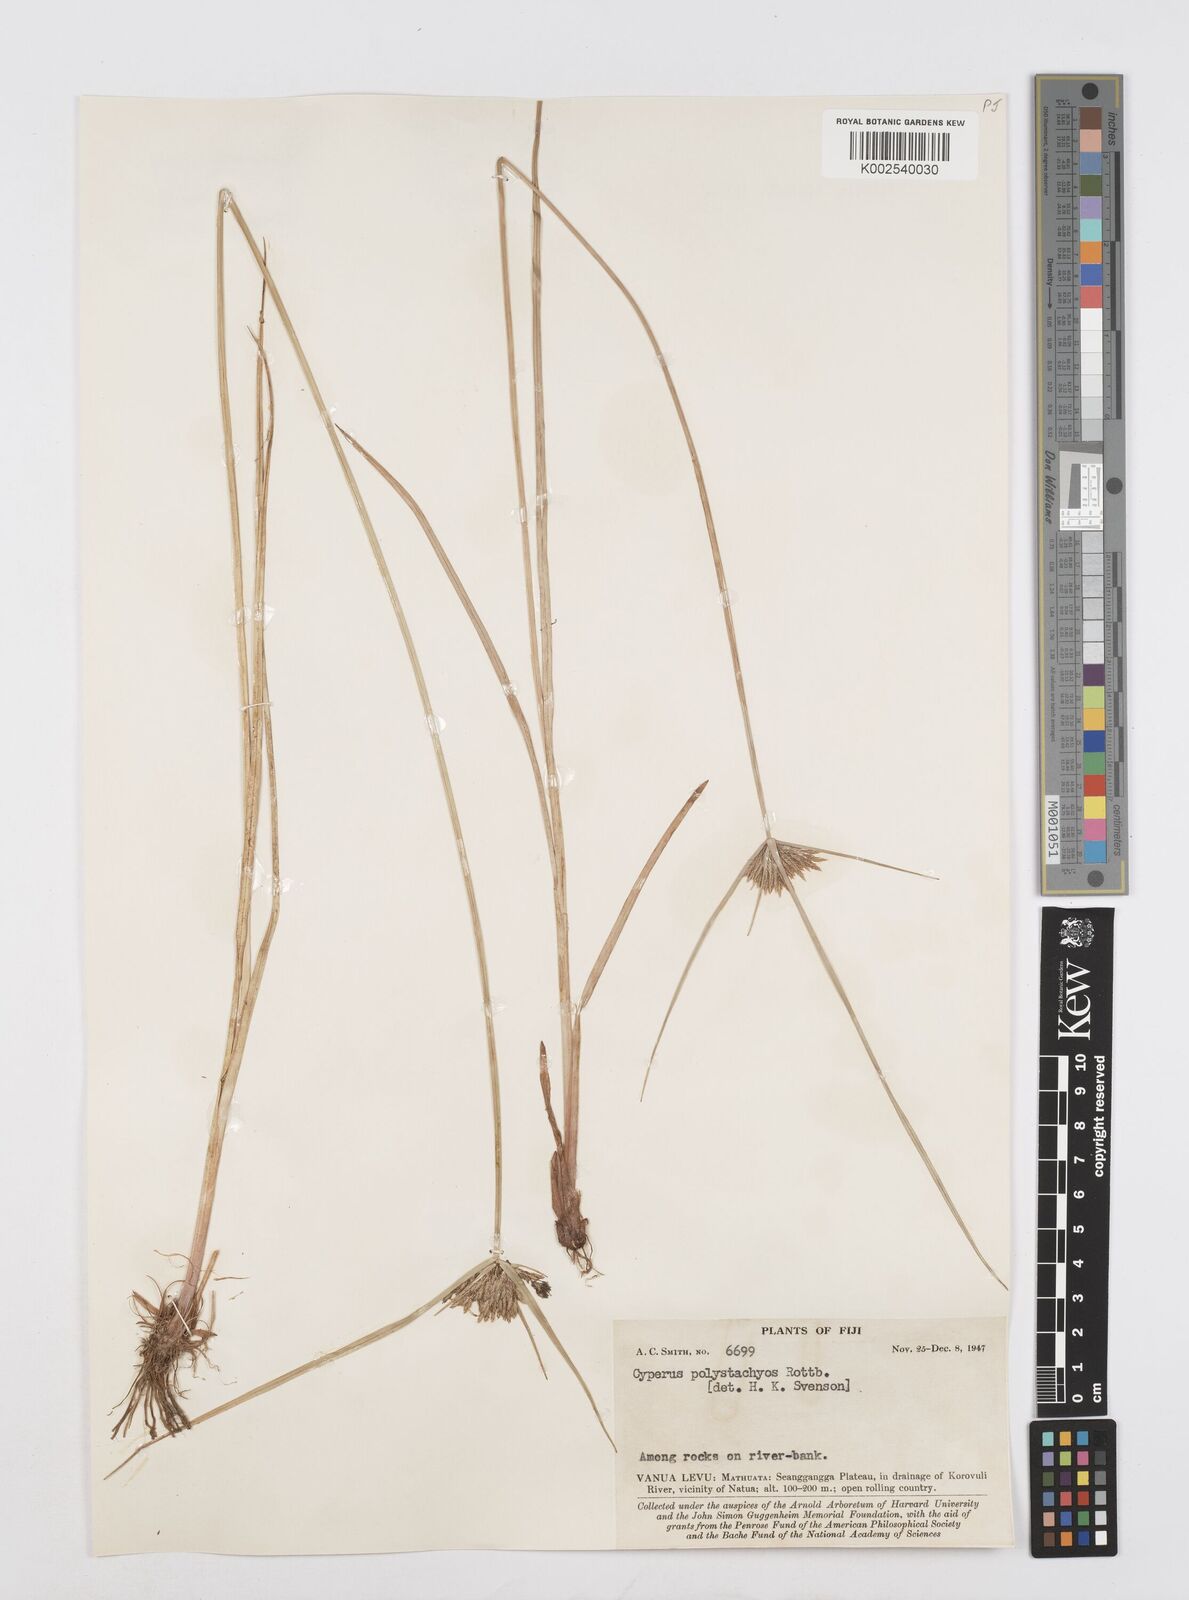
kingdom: Plantae
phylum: Tracheophyta
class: Liliopsida
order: Poales
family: Cyperaceae
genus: Cyperus
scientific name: Cyperus polystachyos
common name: Bunchy flat sedge
